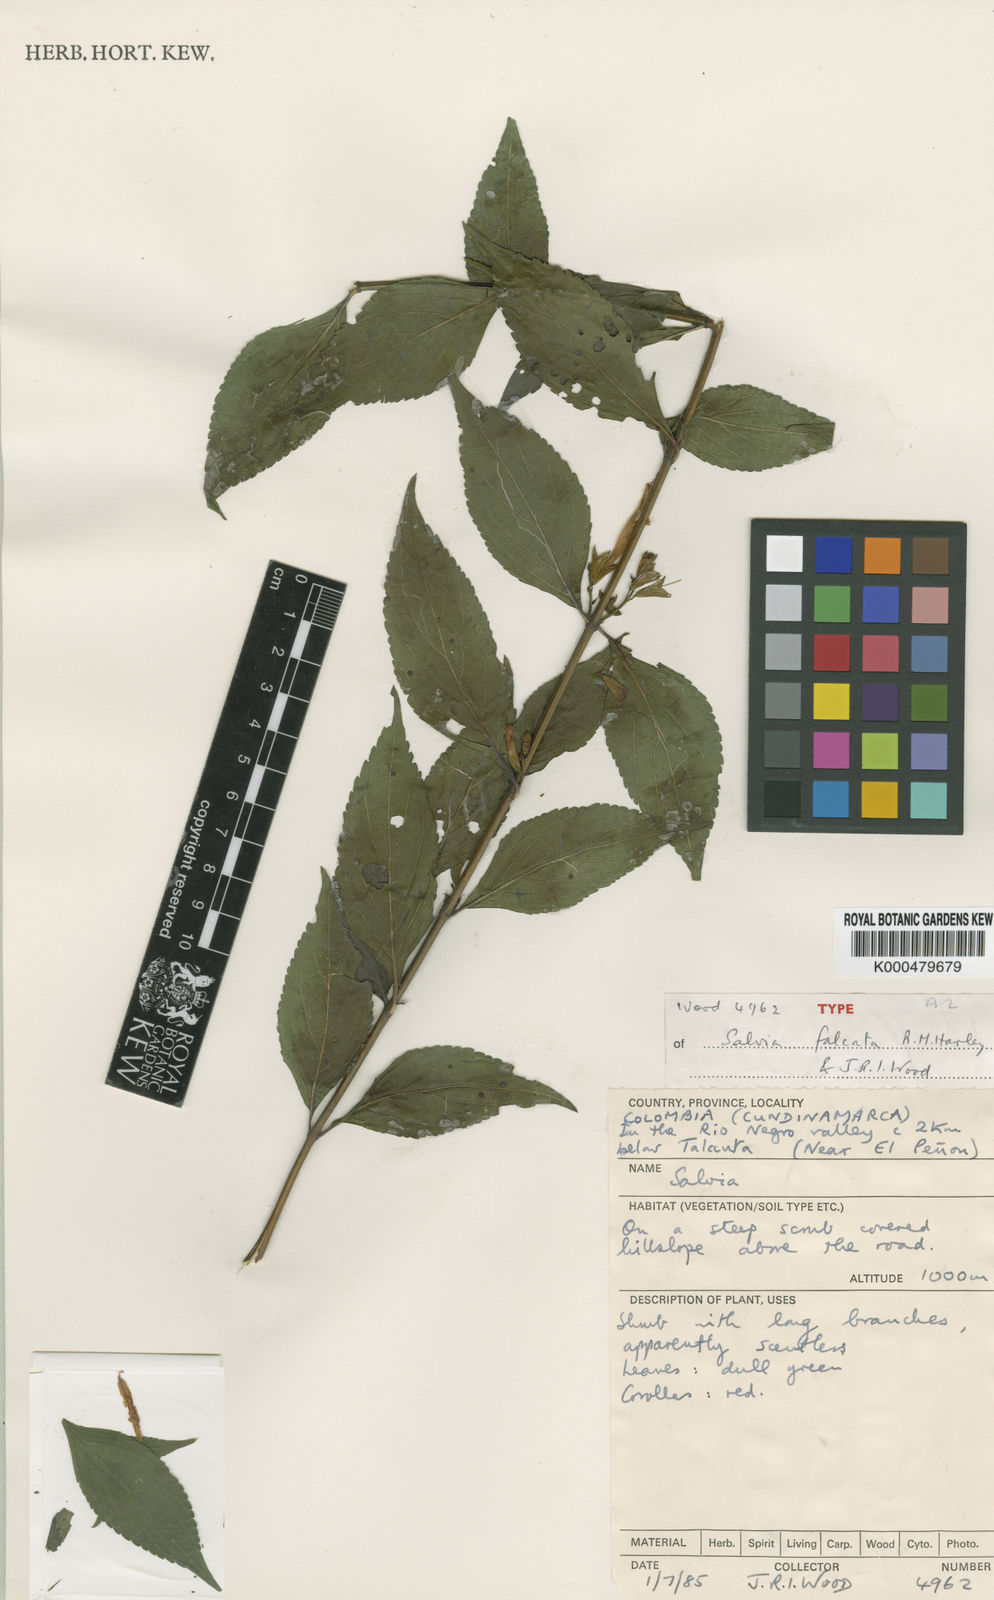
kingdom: Plantae
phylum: Tracheophyta
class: Magnoliopsida
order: Lamiales
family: Lamiaceae
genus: Salvia
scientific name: Salvia falcata
